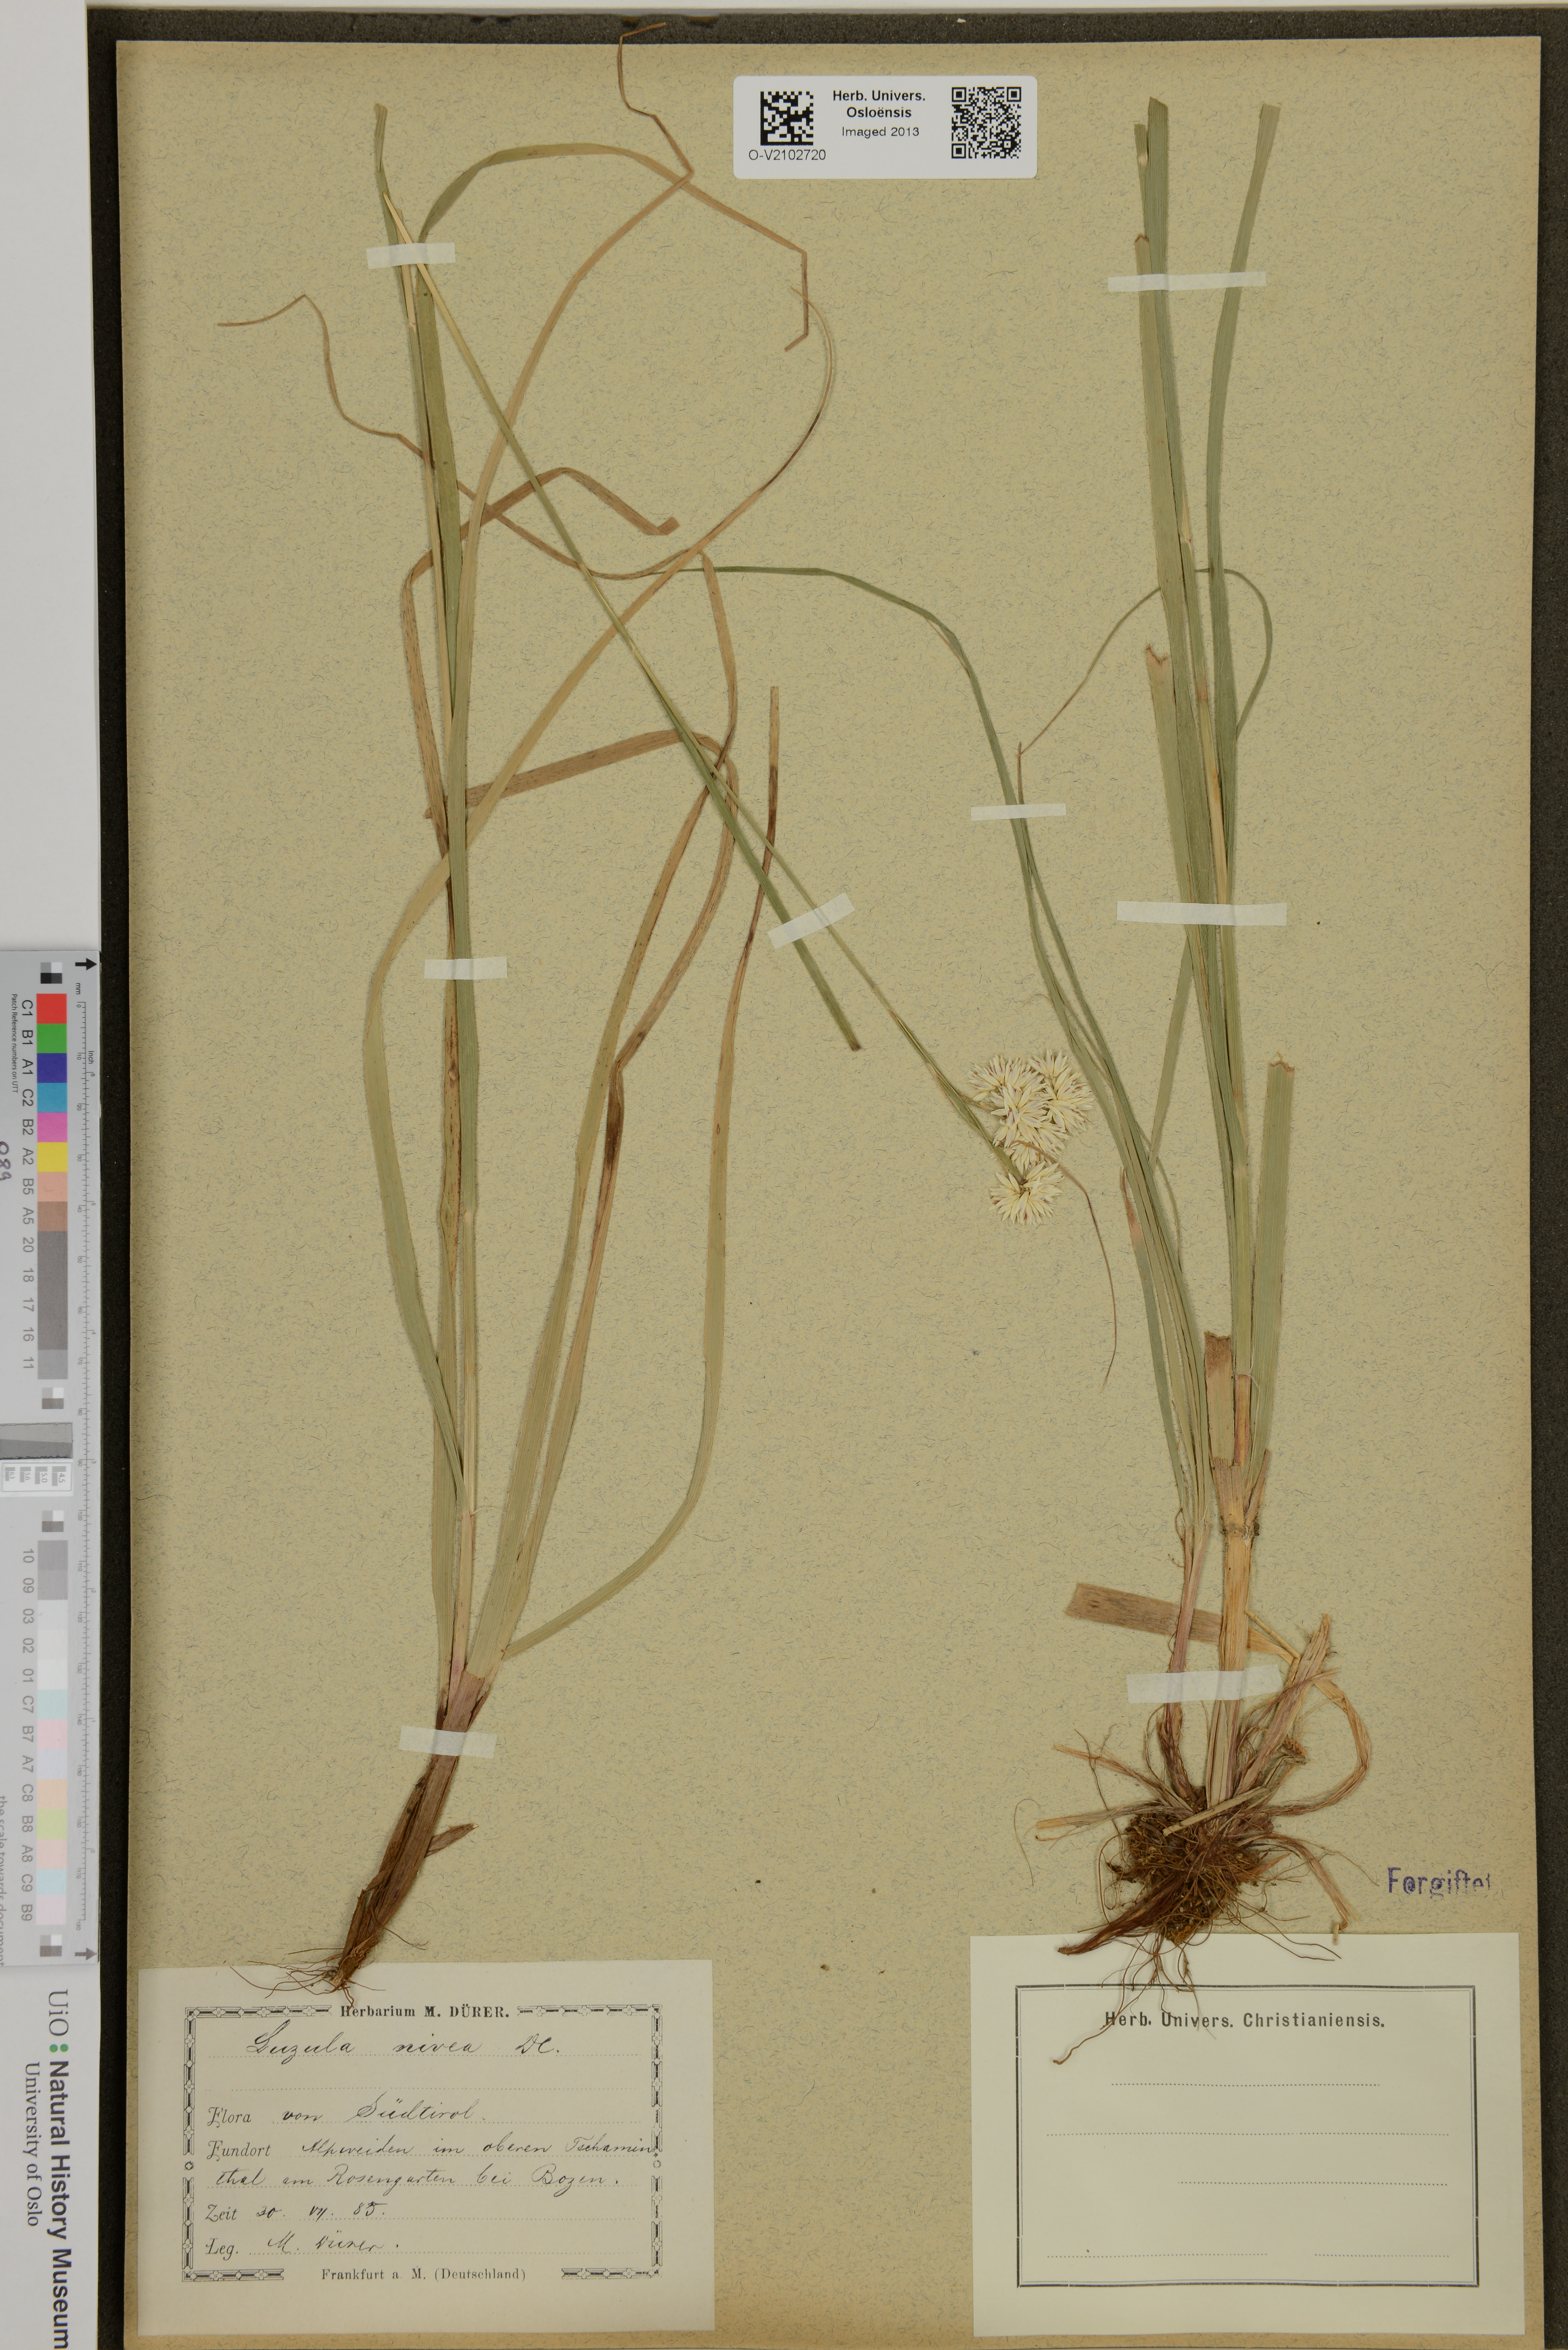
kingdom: Plantae
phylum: Tracheophyta
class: Liliopsida
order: Poales
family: Juncaceae
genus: Luzula
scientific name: Luzula nivea
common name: Snow-white wood-rush
